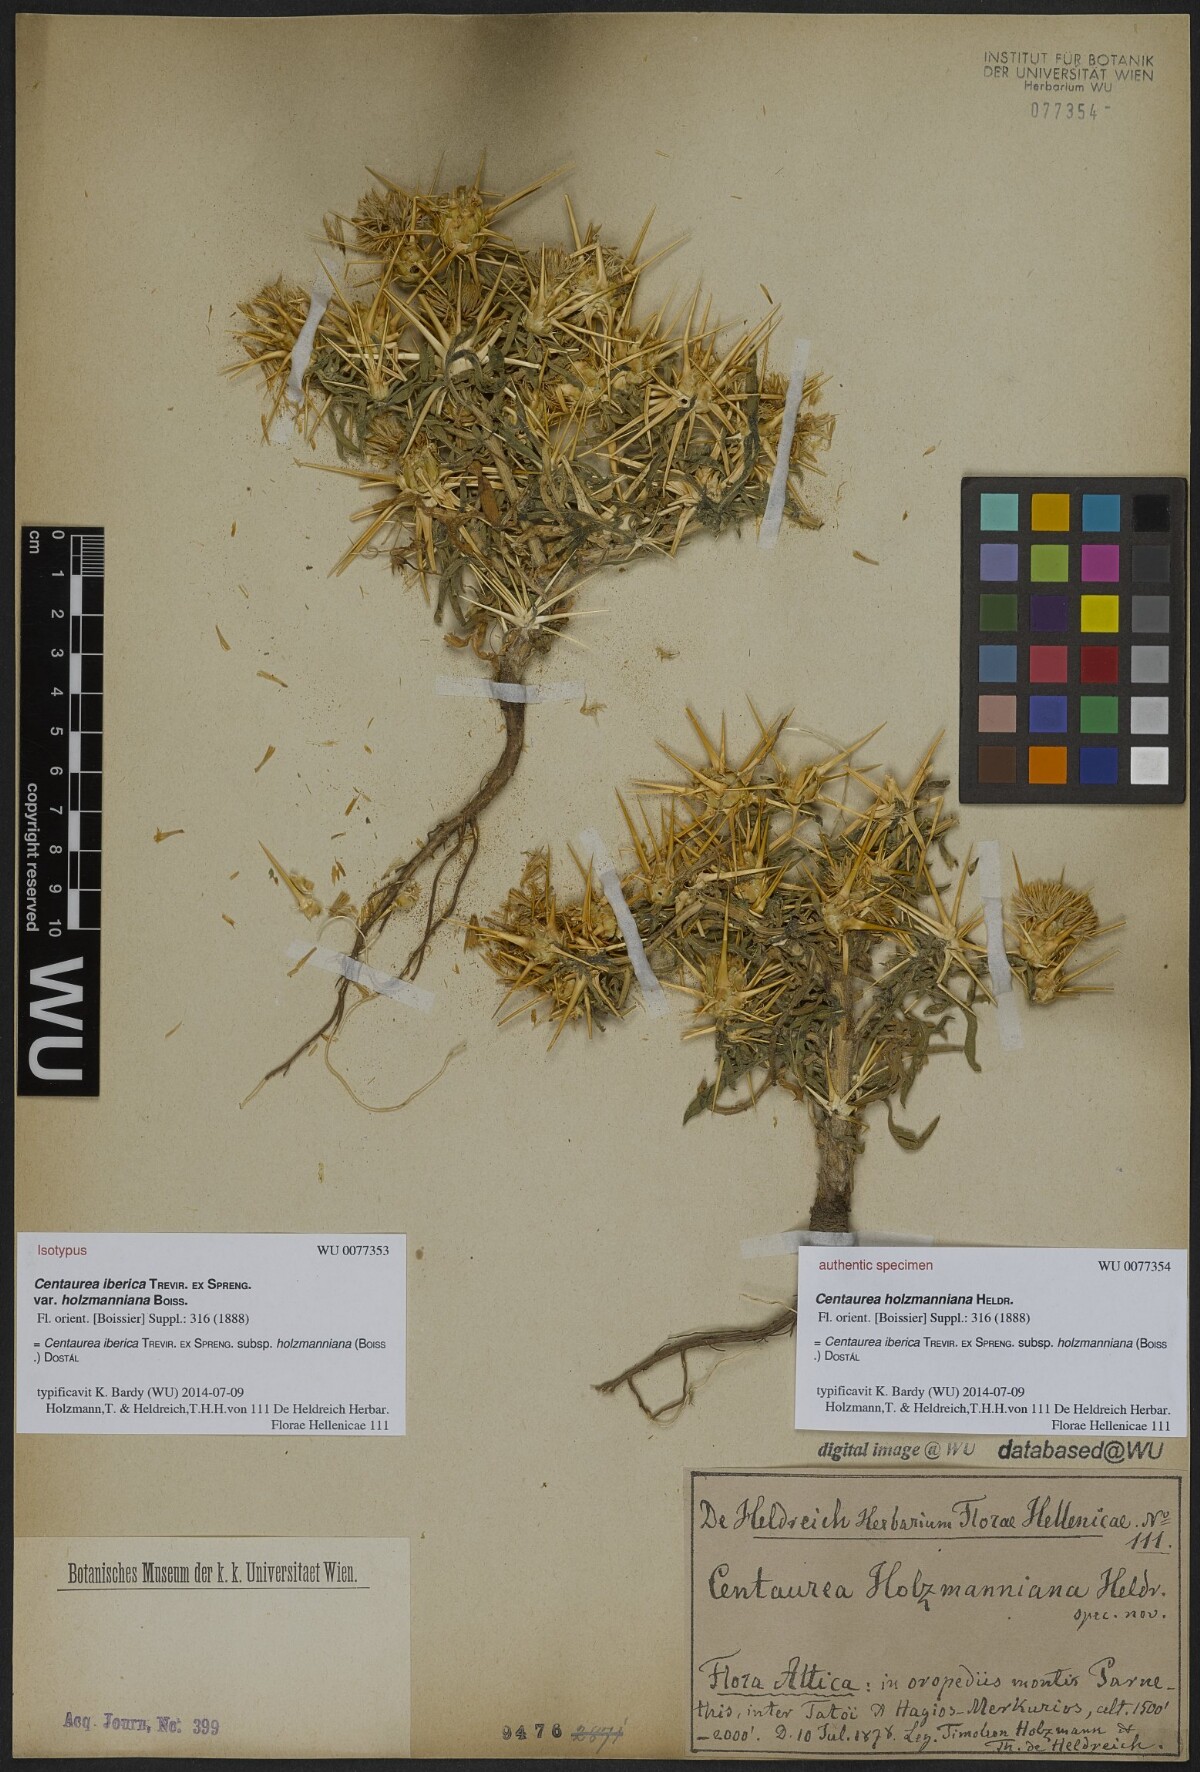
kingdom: Plantae
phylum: Tracheophyta
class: Magnoliopsida
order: Asterales
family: Asteraceae
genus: Centaurea
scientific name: Centaurea iberica
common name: Iberian knapweed
